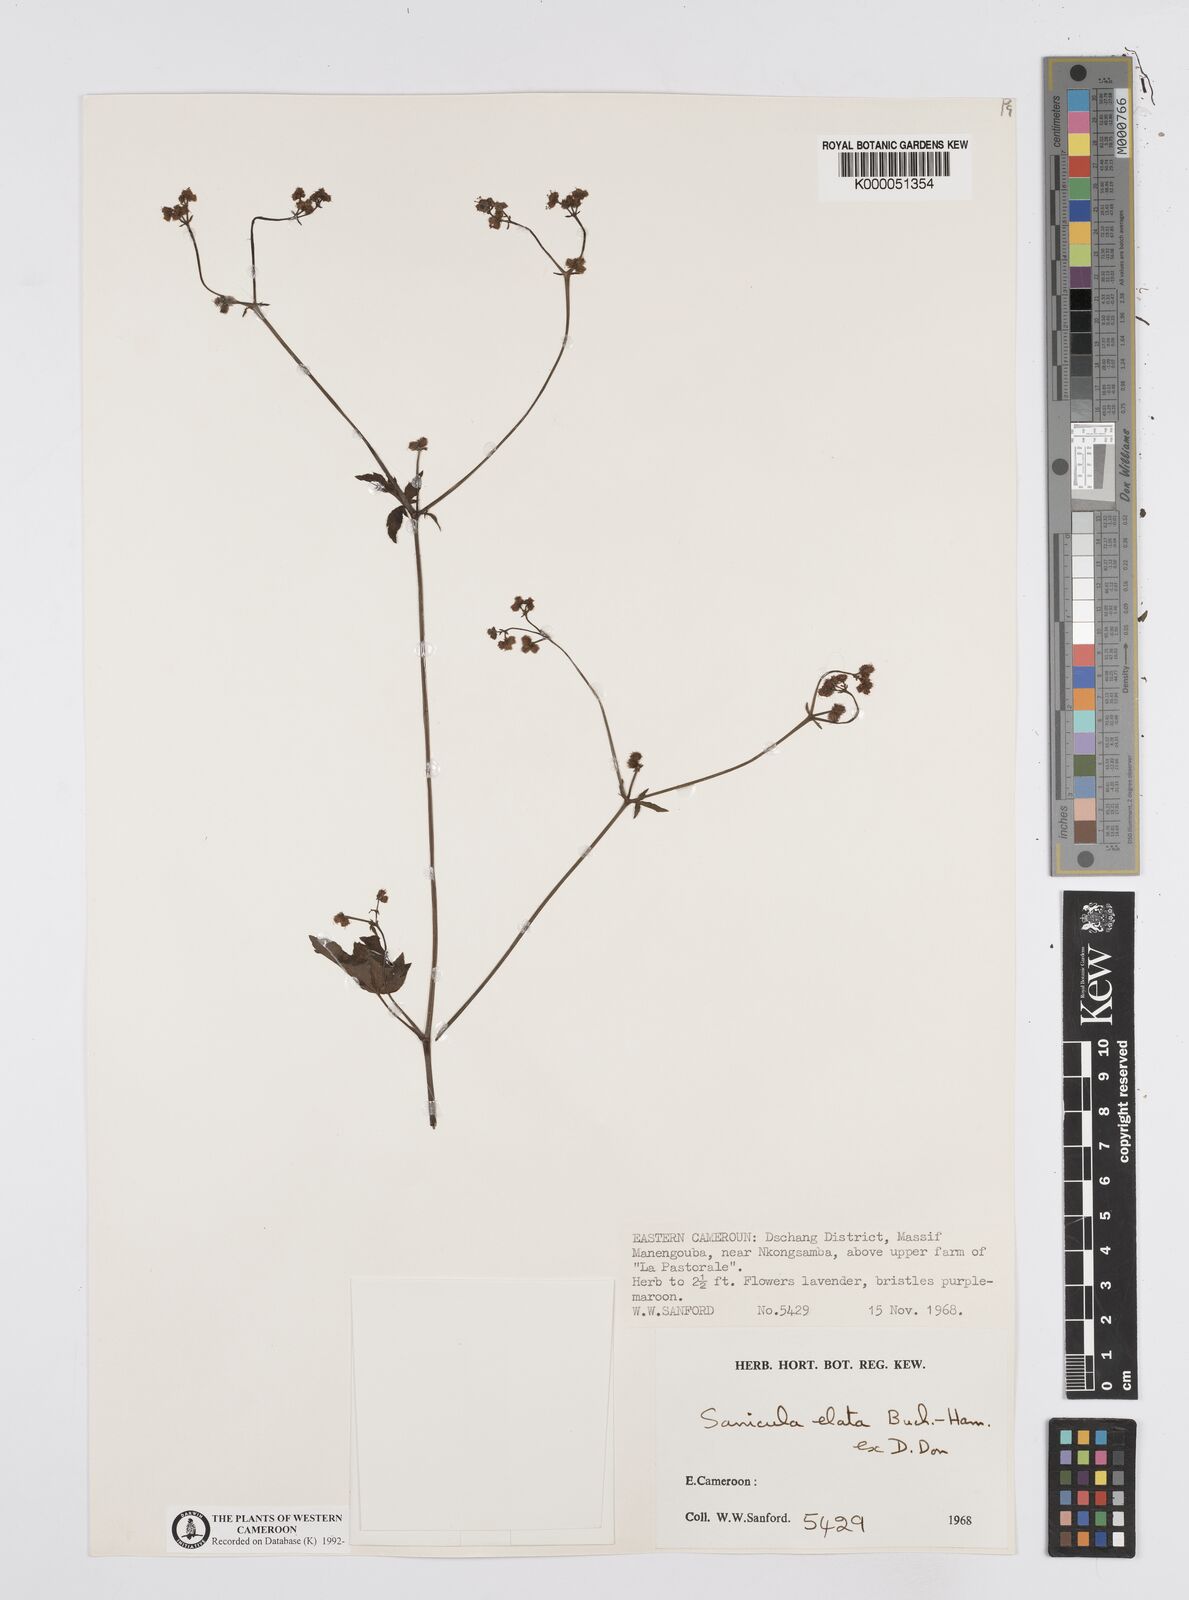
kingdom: Plantae
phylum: Tracheophyta
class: Magnoliopsida
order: Apiales
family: Apiaceae
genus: Sanicula
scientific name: Sanicula
